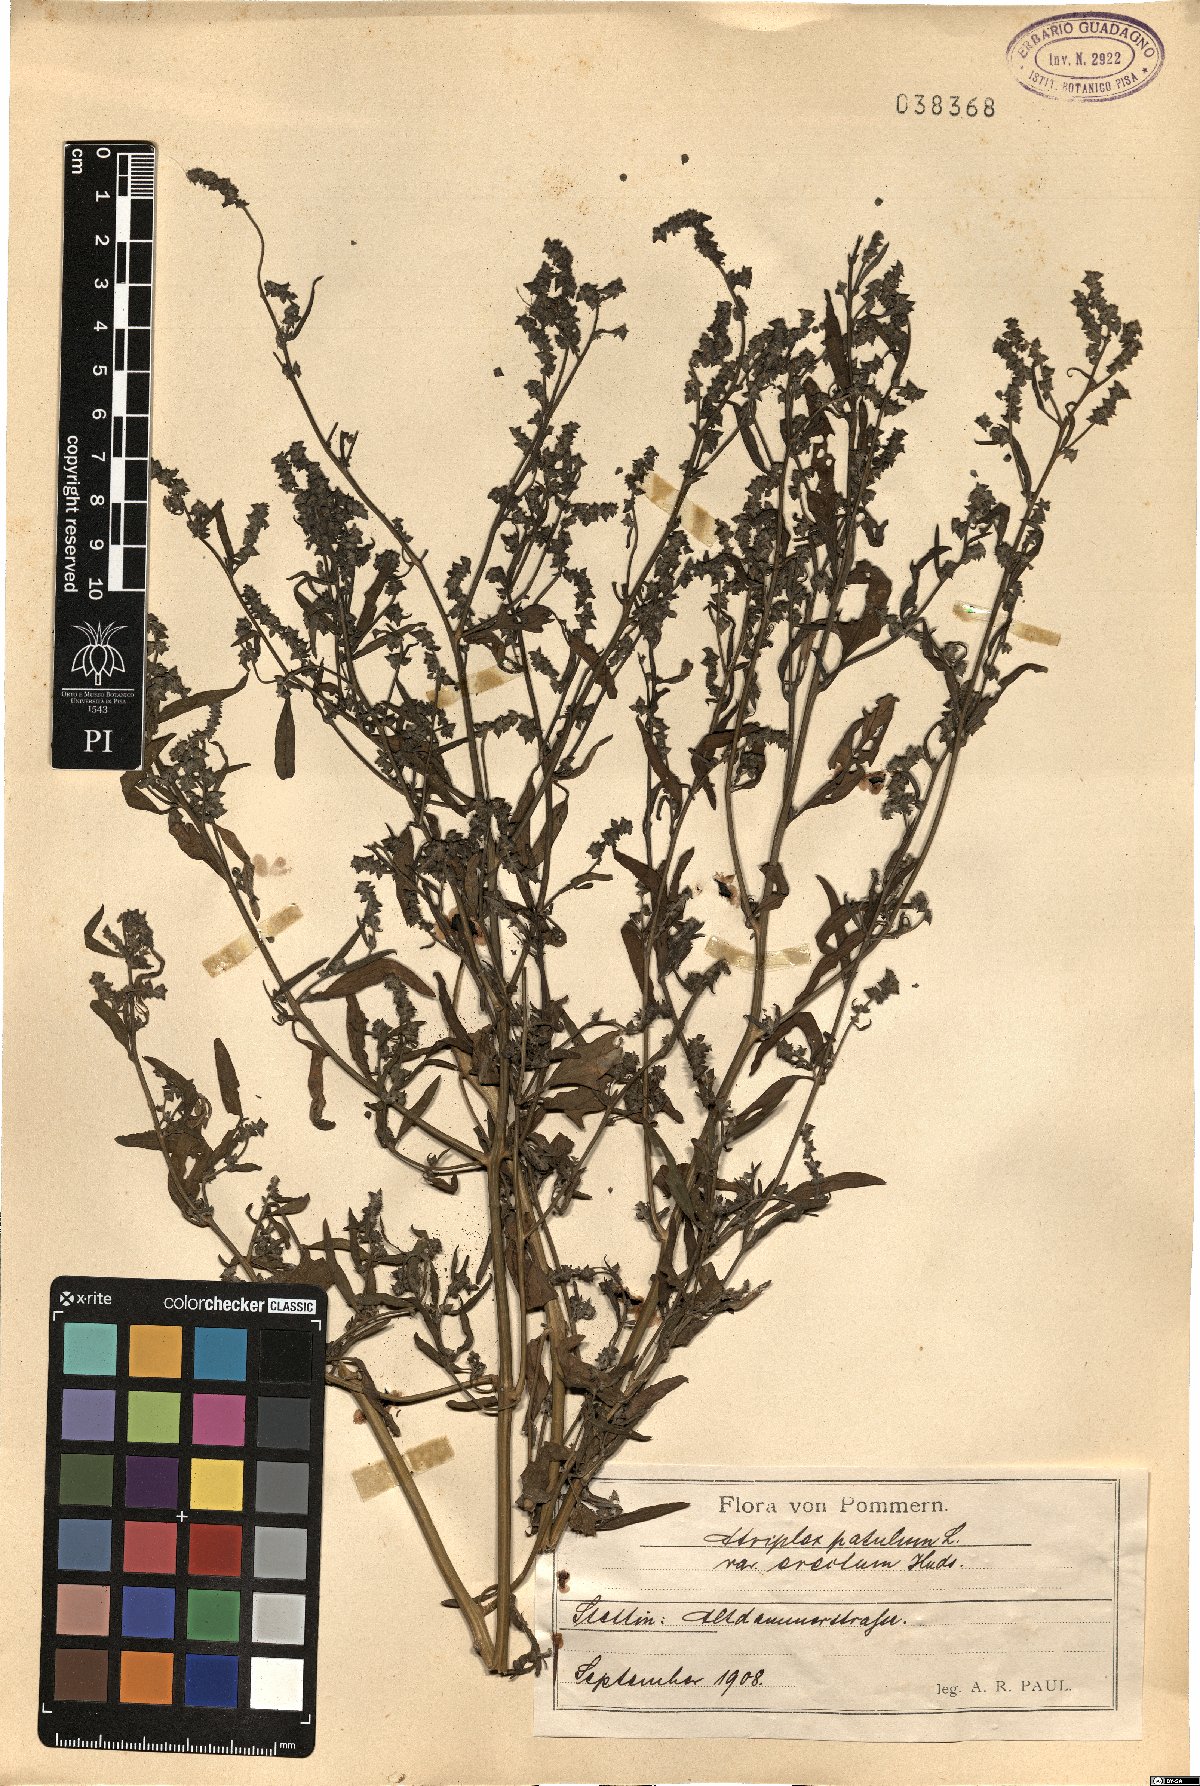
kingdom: Plantae
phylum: Tracheophyta
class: Magnoliopsida
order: Caryophyllales
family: Amaranthaceae
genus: Atriplex
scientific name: Atriplex patula
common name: Common orache
